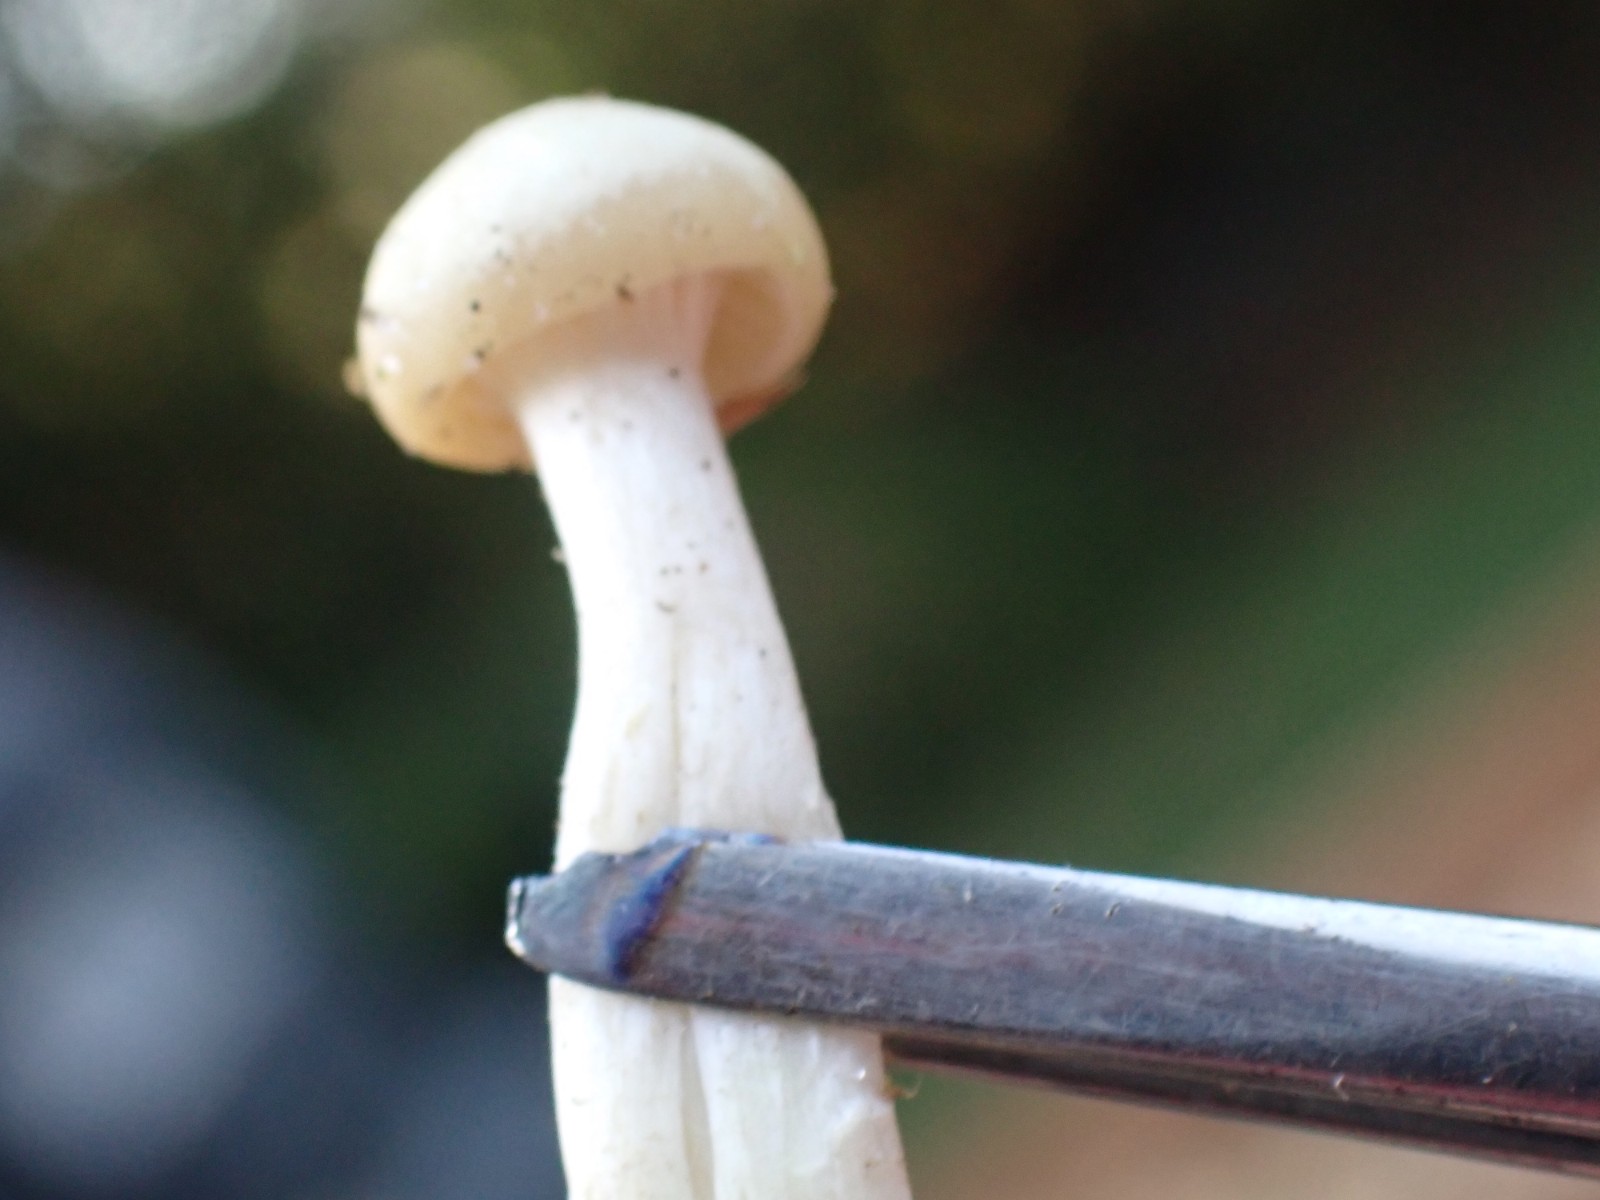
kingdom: Fungi
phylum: Basidiomycota
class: Agaricomycetes
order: Agaricales
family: Hygrophoraceae
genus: Cuphophyllus
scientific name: Cuphophyllus virgineus
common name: snehvid vokshat
